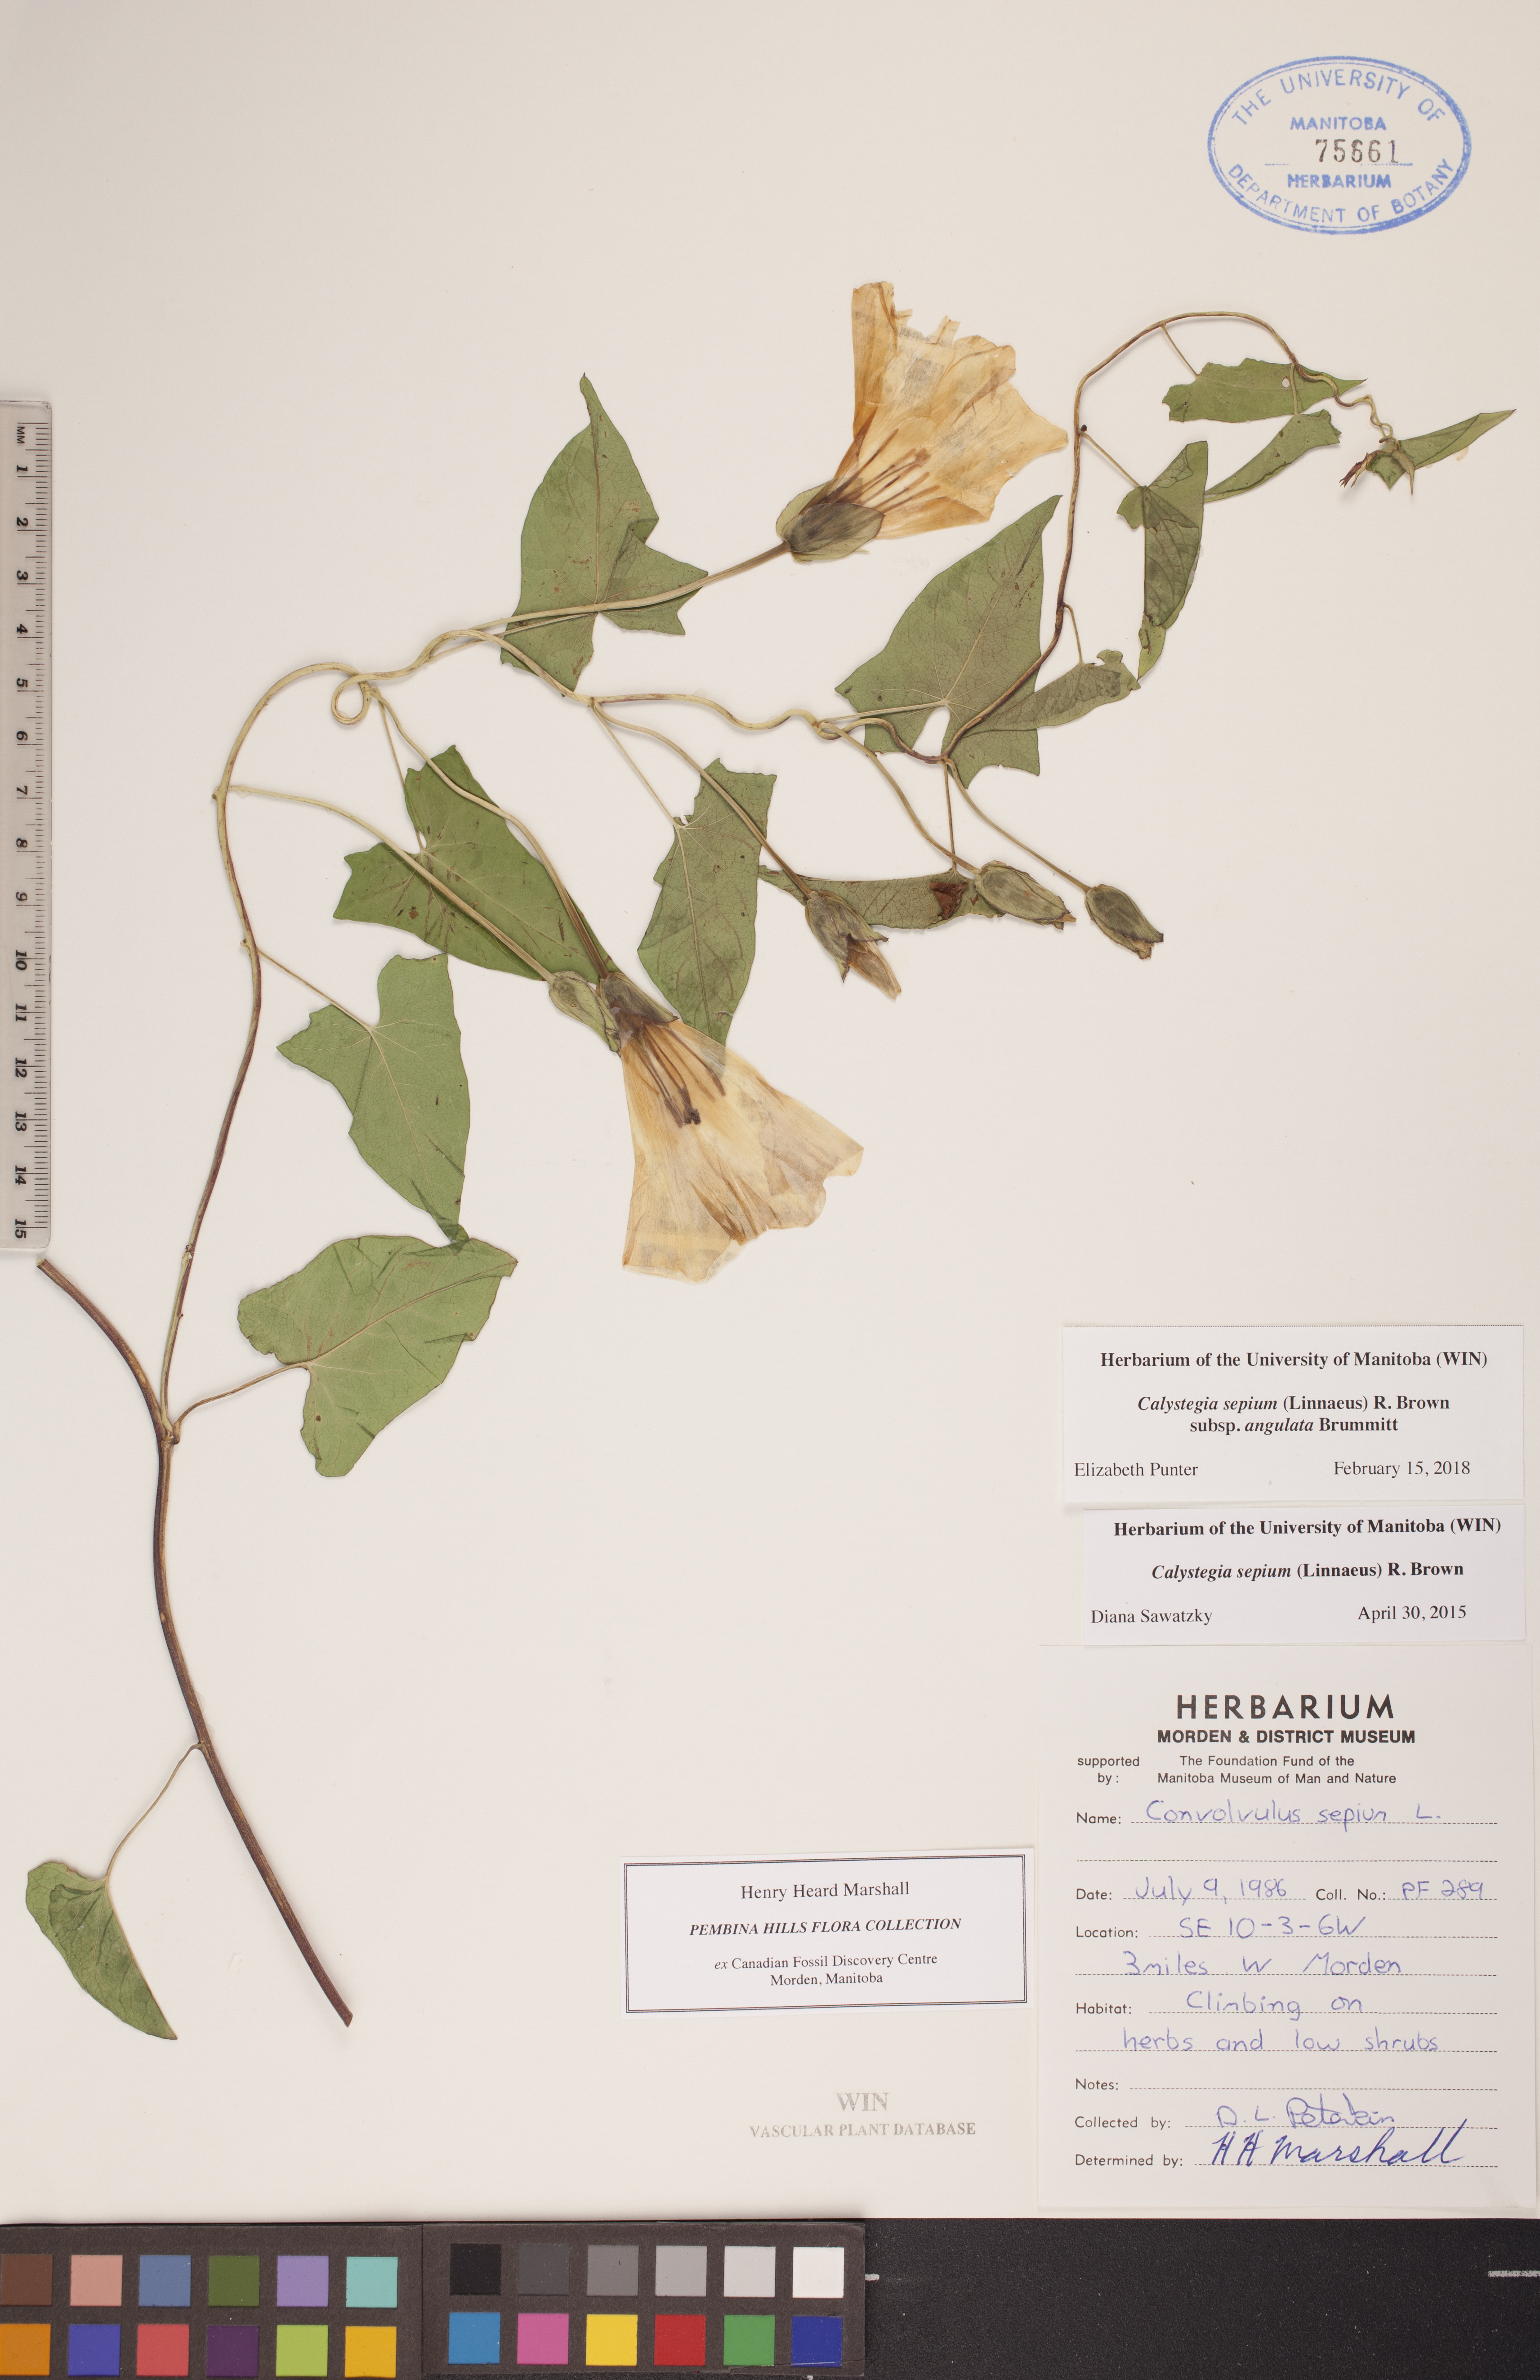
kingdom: Plantae
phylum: Tracheophyta
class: Magnoliopsida
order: Solanales
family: Convolvulaceae
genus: Calystegia
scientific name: Calystegia sepium
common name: Hedge bindweed
